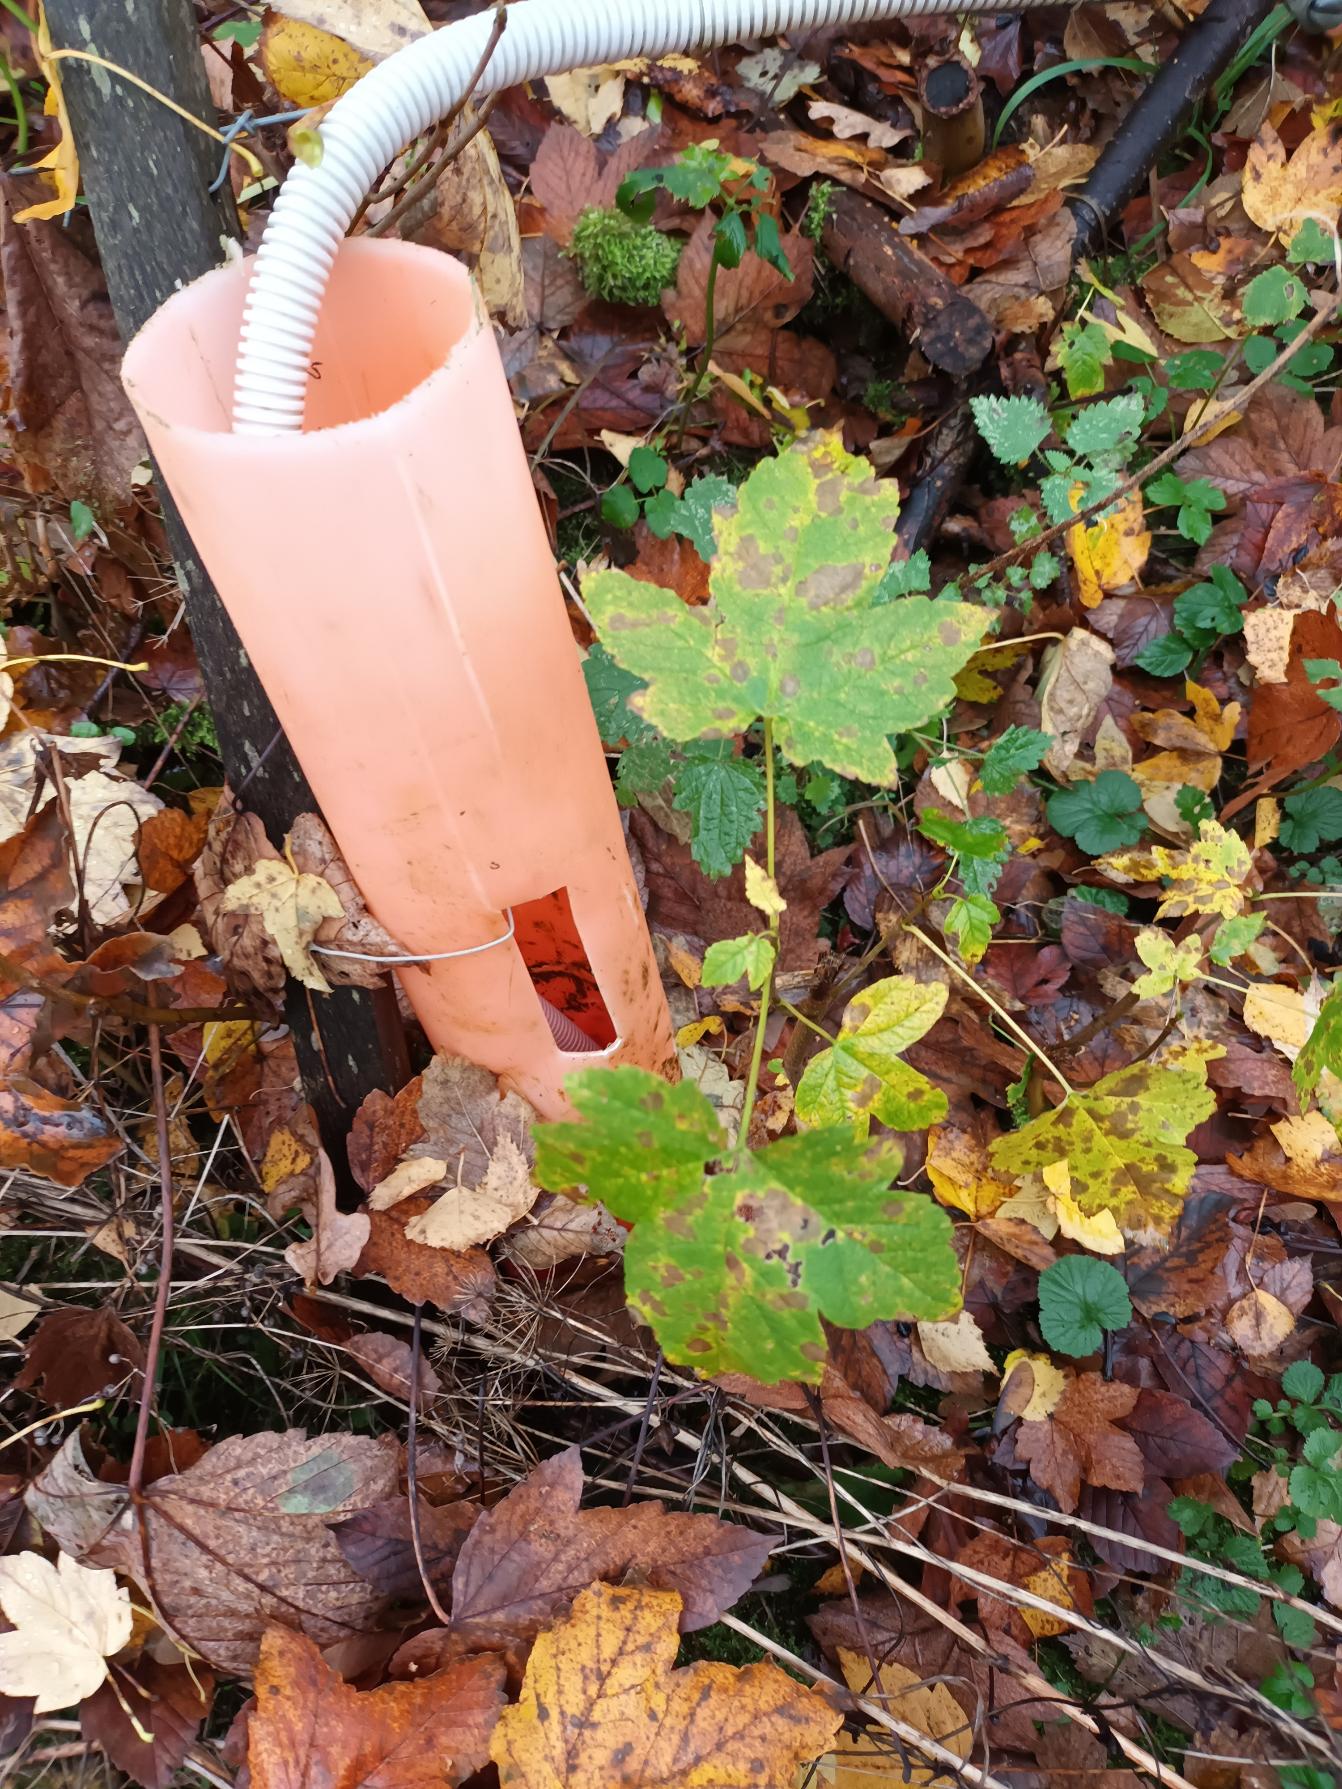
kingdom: Plantae
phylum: Tracheophyta
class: Magnoliopsida
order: Sapindales
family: Sapindaceae
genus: Acer
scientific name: Acer pseudoplatanus
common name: Ahorn
